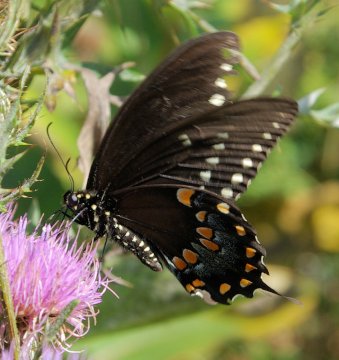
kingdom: Animalia
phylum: Arthropoda
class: Insecta
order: Lepidoptera
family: Papilionidae
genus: Pterourus
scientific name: Pterourus troilus
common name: Spicebush Swallowtail
